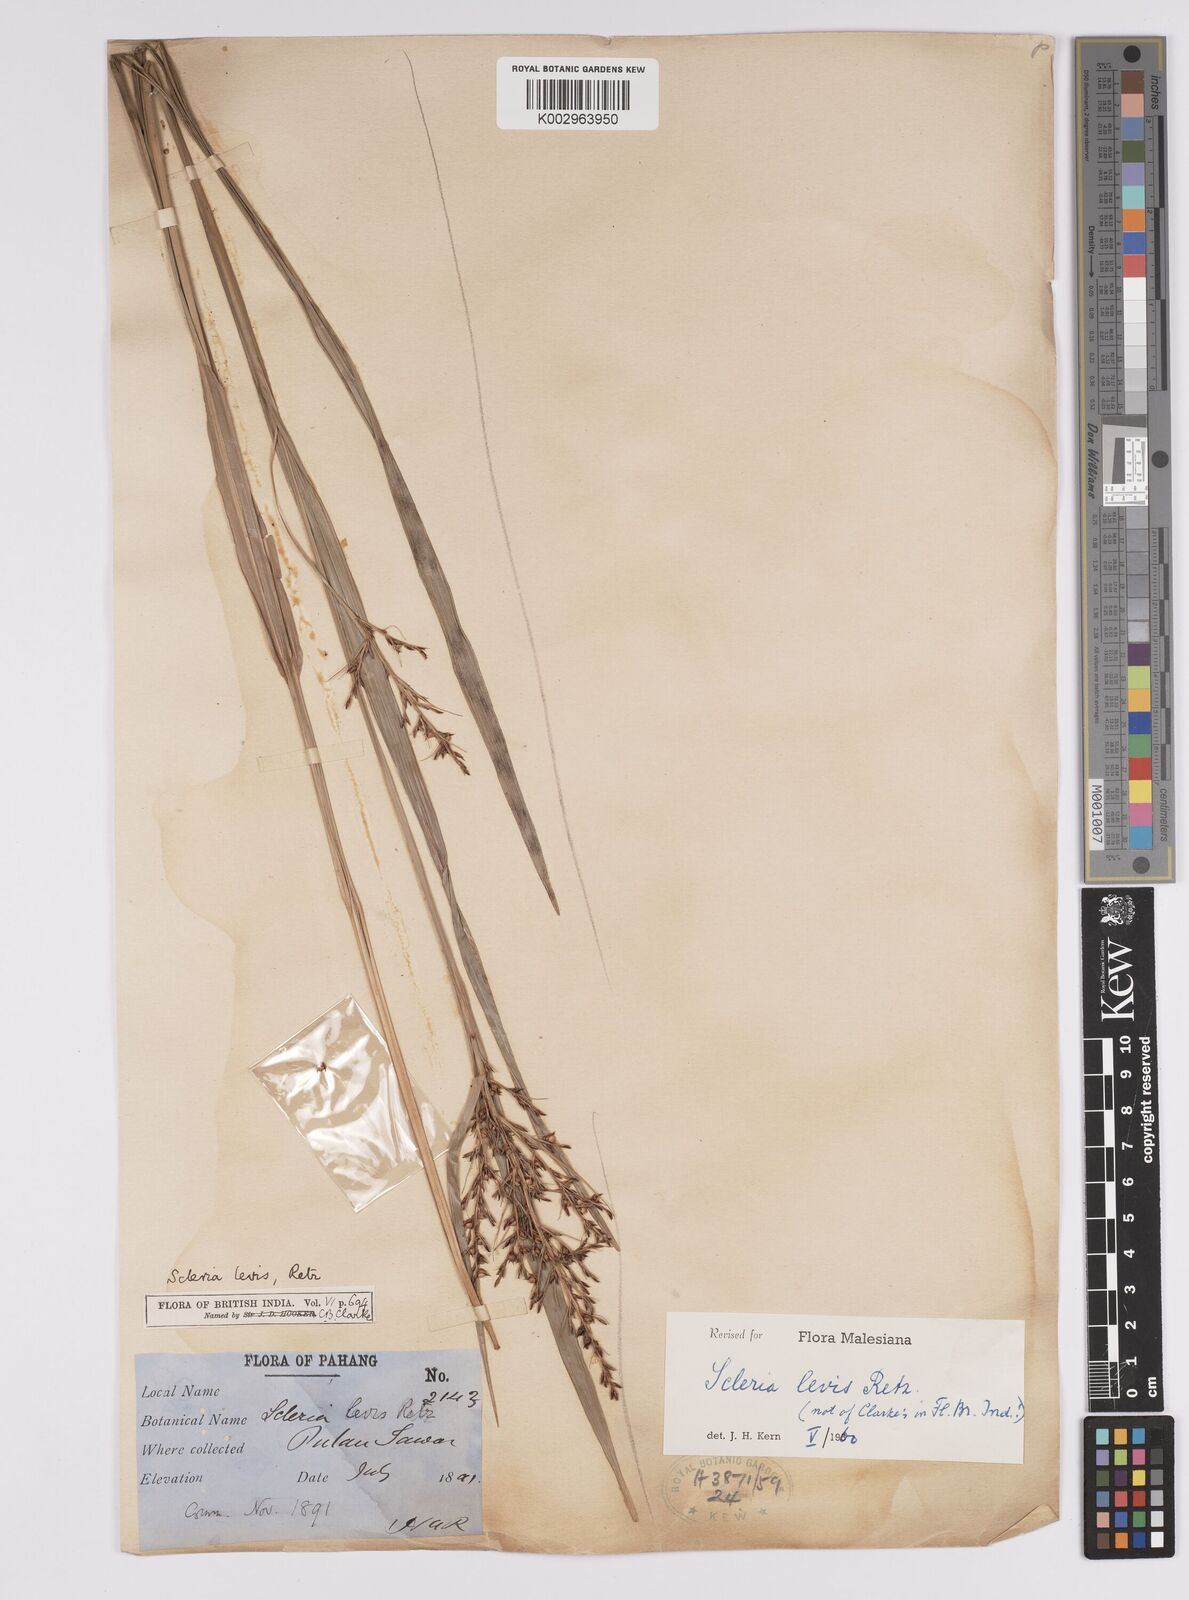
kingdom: Plantae
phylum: Tracheophyta
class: Liliopsida
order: Poales
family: Cyperaceae
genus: Scleria
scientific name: Scleria levis
